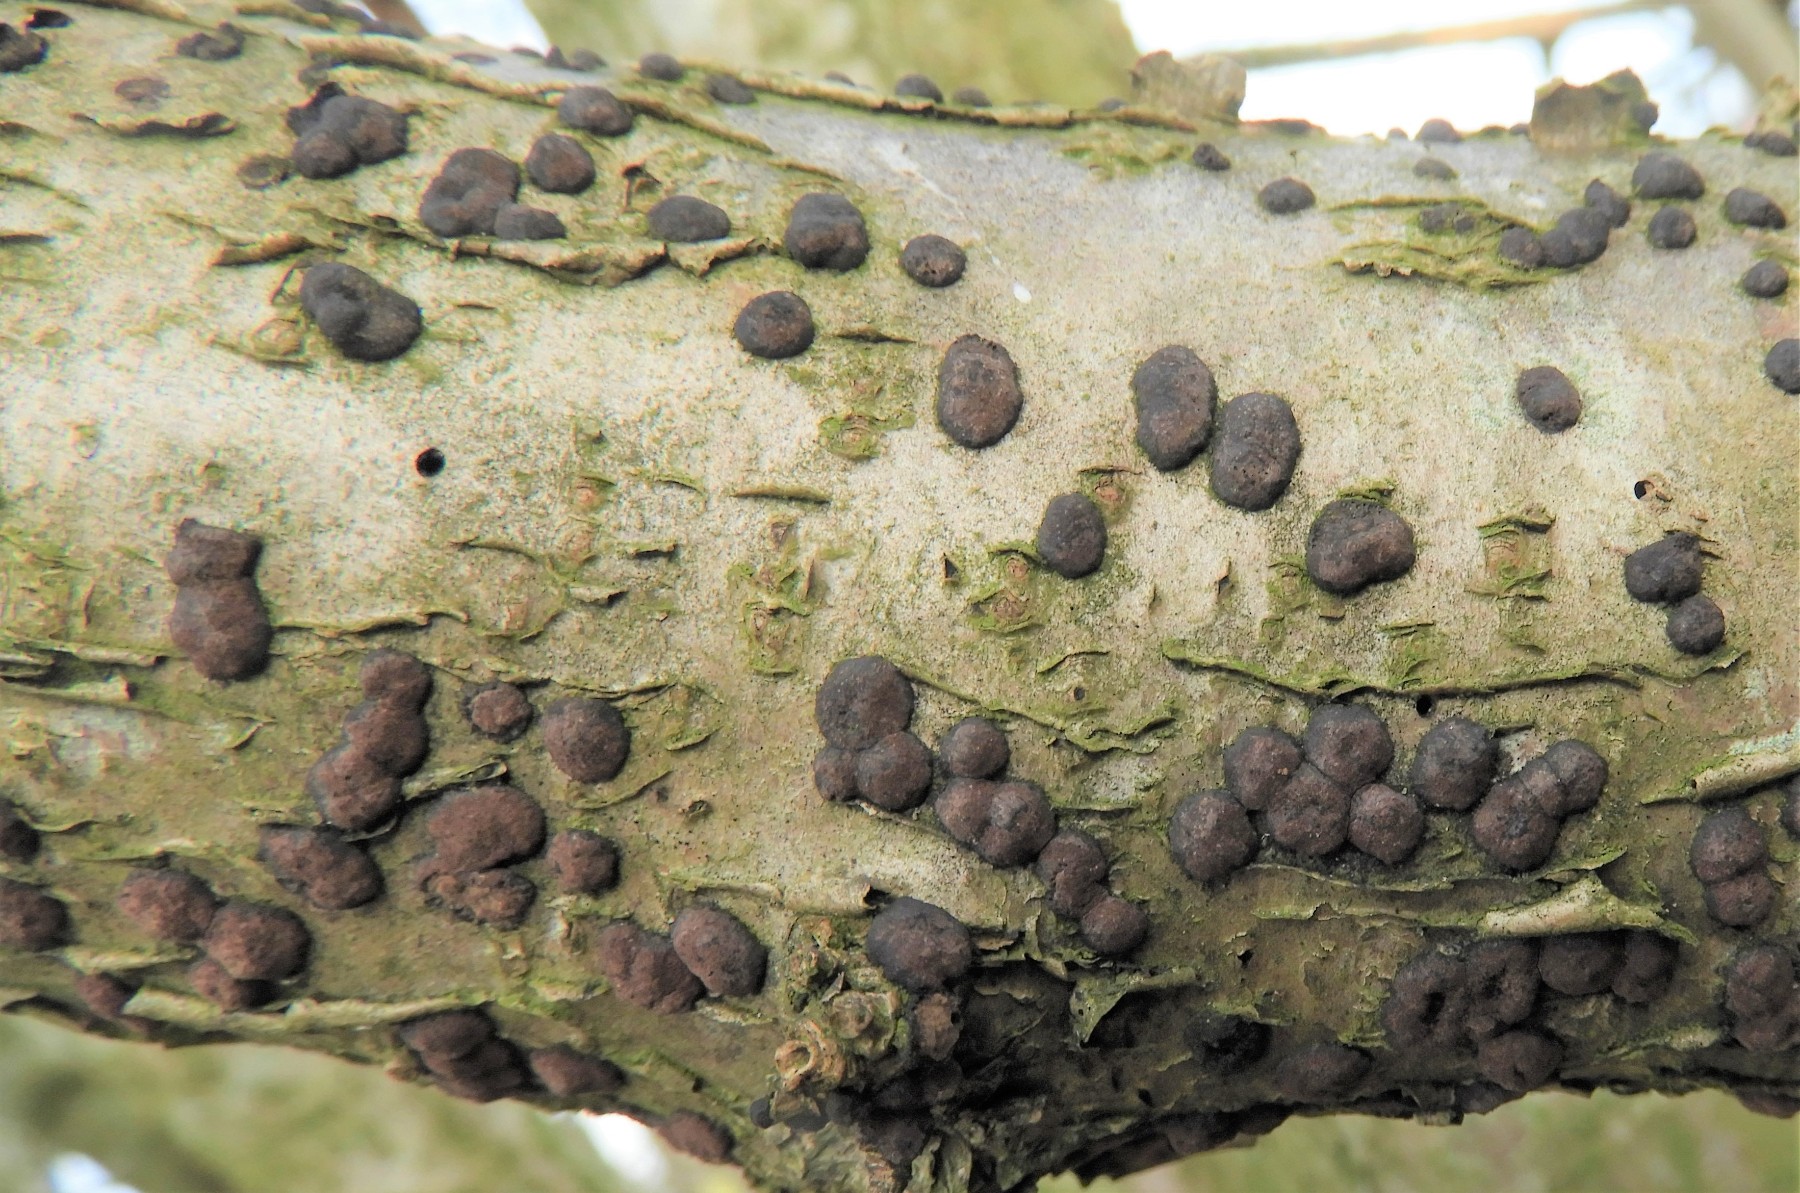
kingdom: Fungi
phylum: Ascomycota
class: Sordariomycetes
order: Xylariales
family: Hypoxylaceae
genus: Hypoxylon
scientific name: Hypoxylon fuscum
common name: kegleformet kulbær
